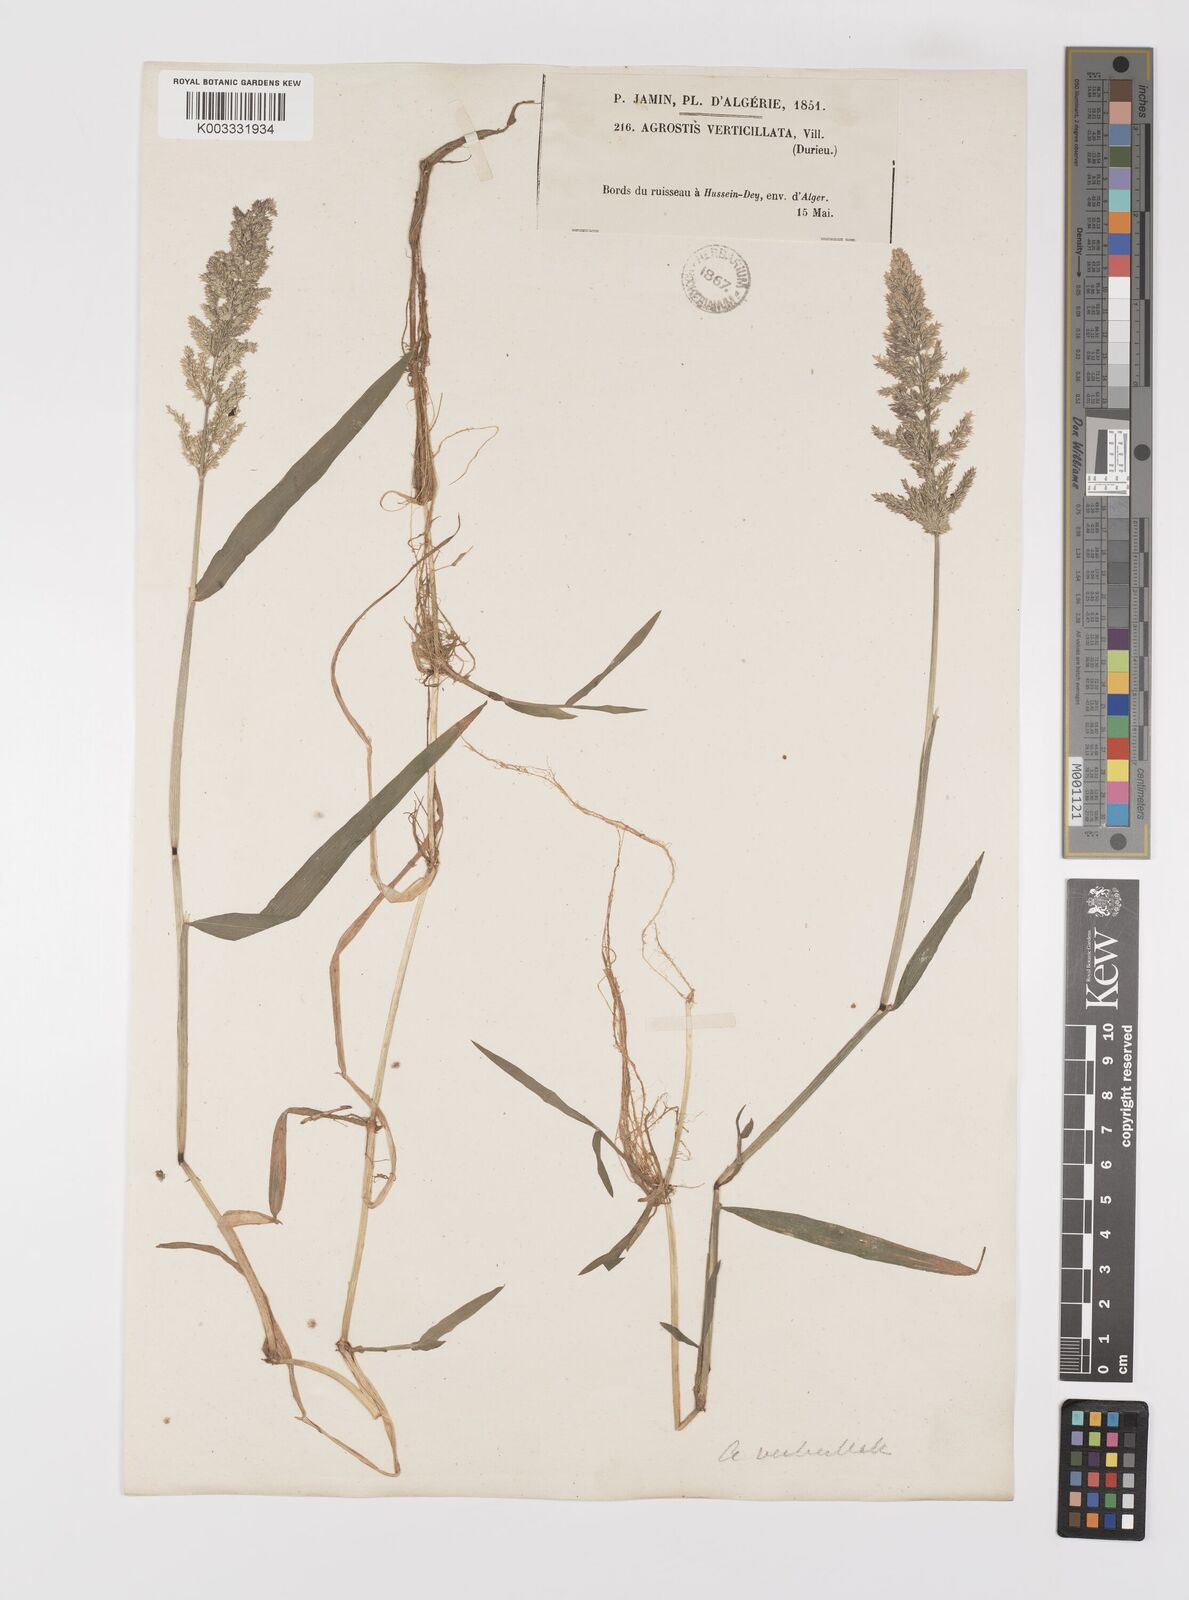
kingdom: Plantae
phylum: Tracheophyta
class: Liliopsida
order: Poales
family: Poaceae
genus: Polypogon
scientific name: Polypogon viridis
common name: Water bent
